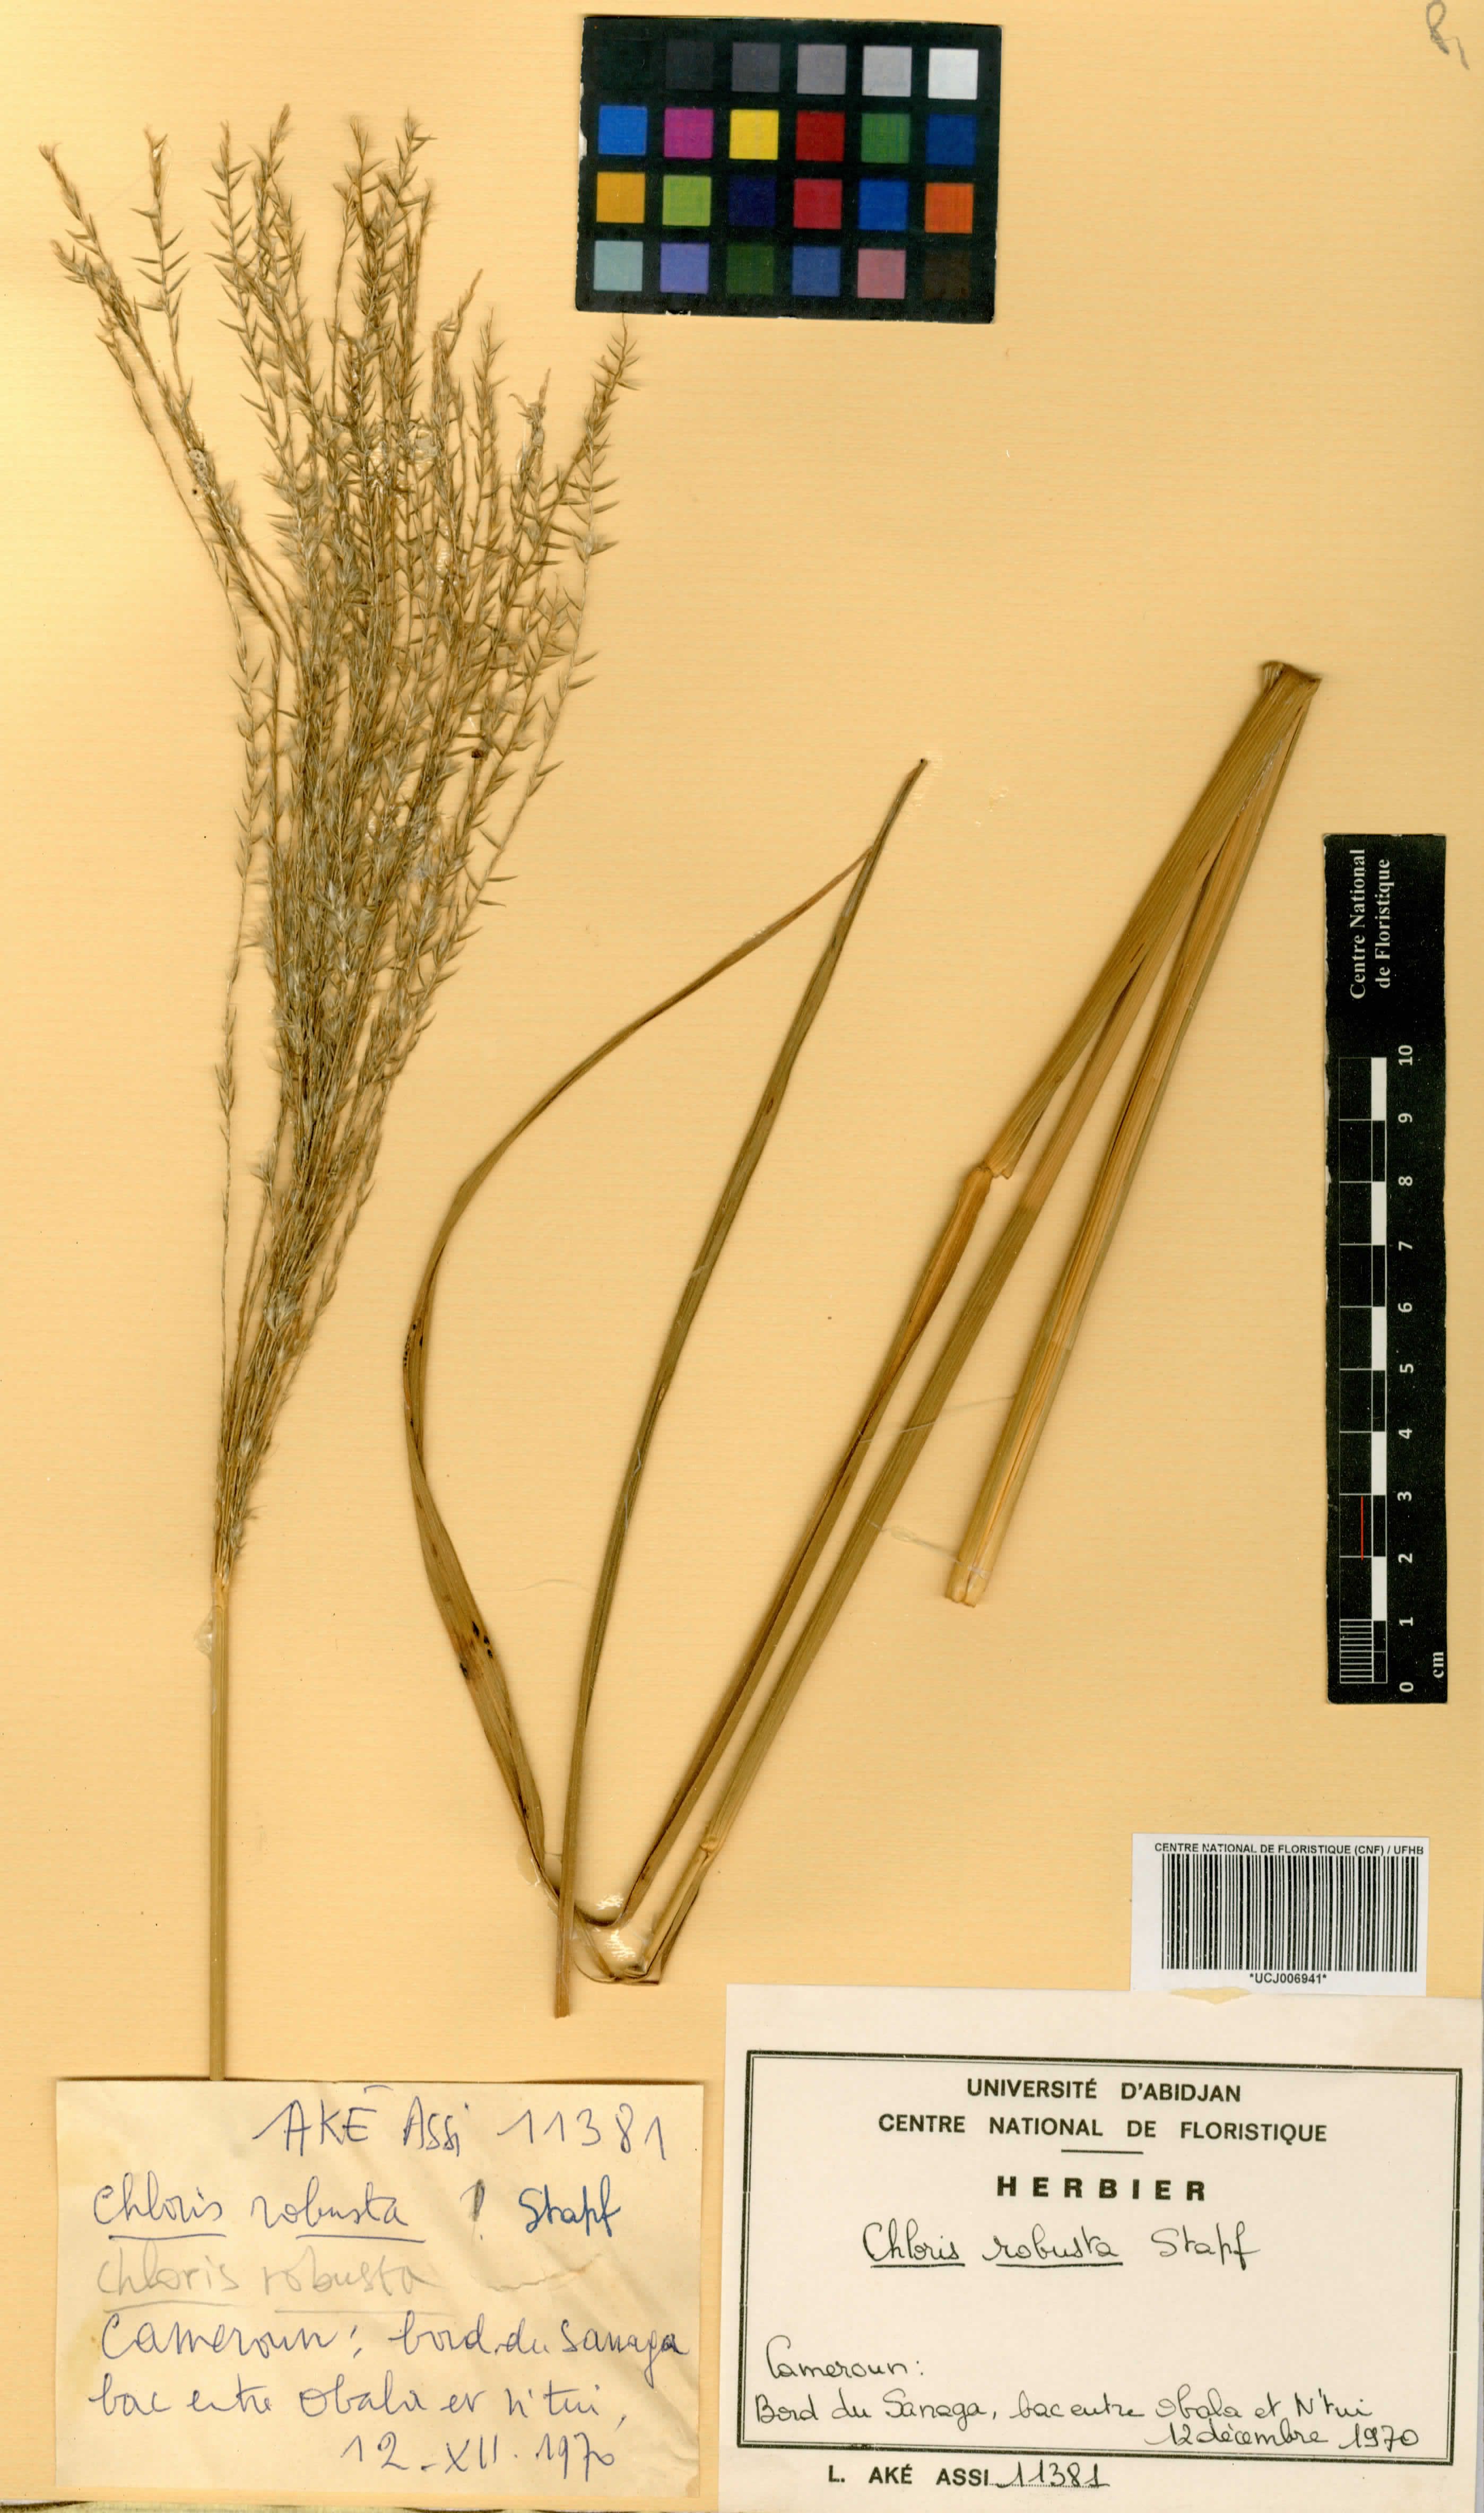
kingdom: Plantae
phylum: Tracheophyta
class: Liliopsida
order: Poales
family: Poaceae
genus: Chloris
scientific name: Chloris robusta
